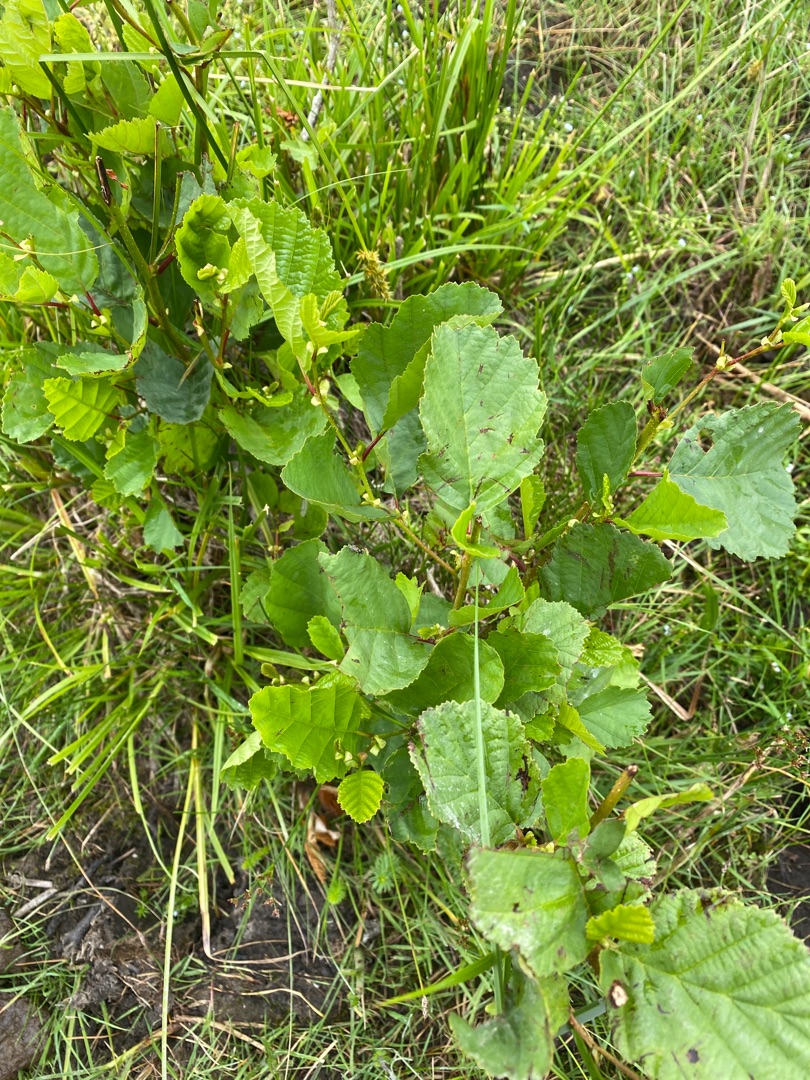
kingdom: Plantae
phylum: Tracheophyta
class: Magnoliopsida
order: Fagales
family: Betulaceae
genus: Alnus
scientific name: Alnus glutinosa
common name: Rød-el
